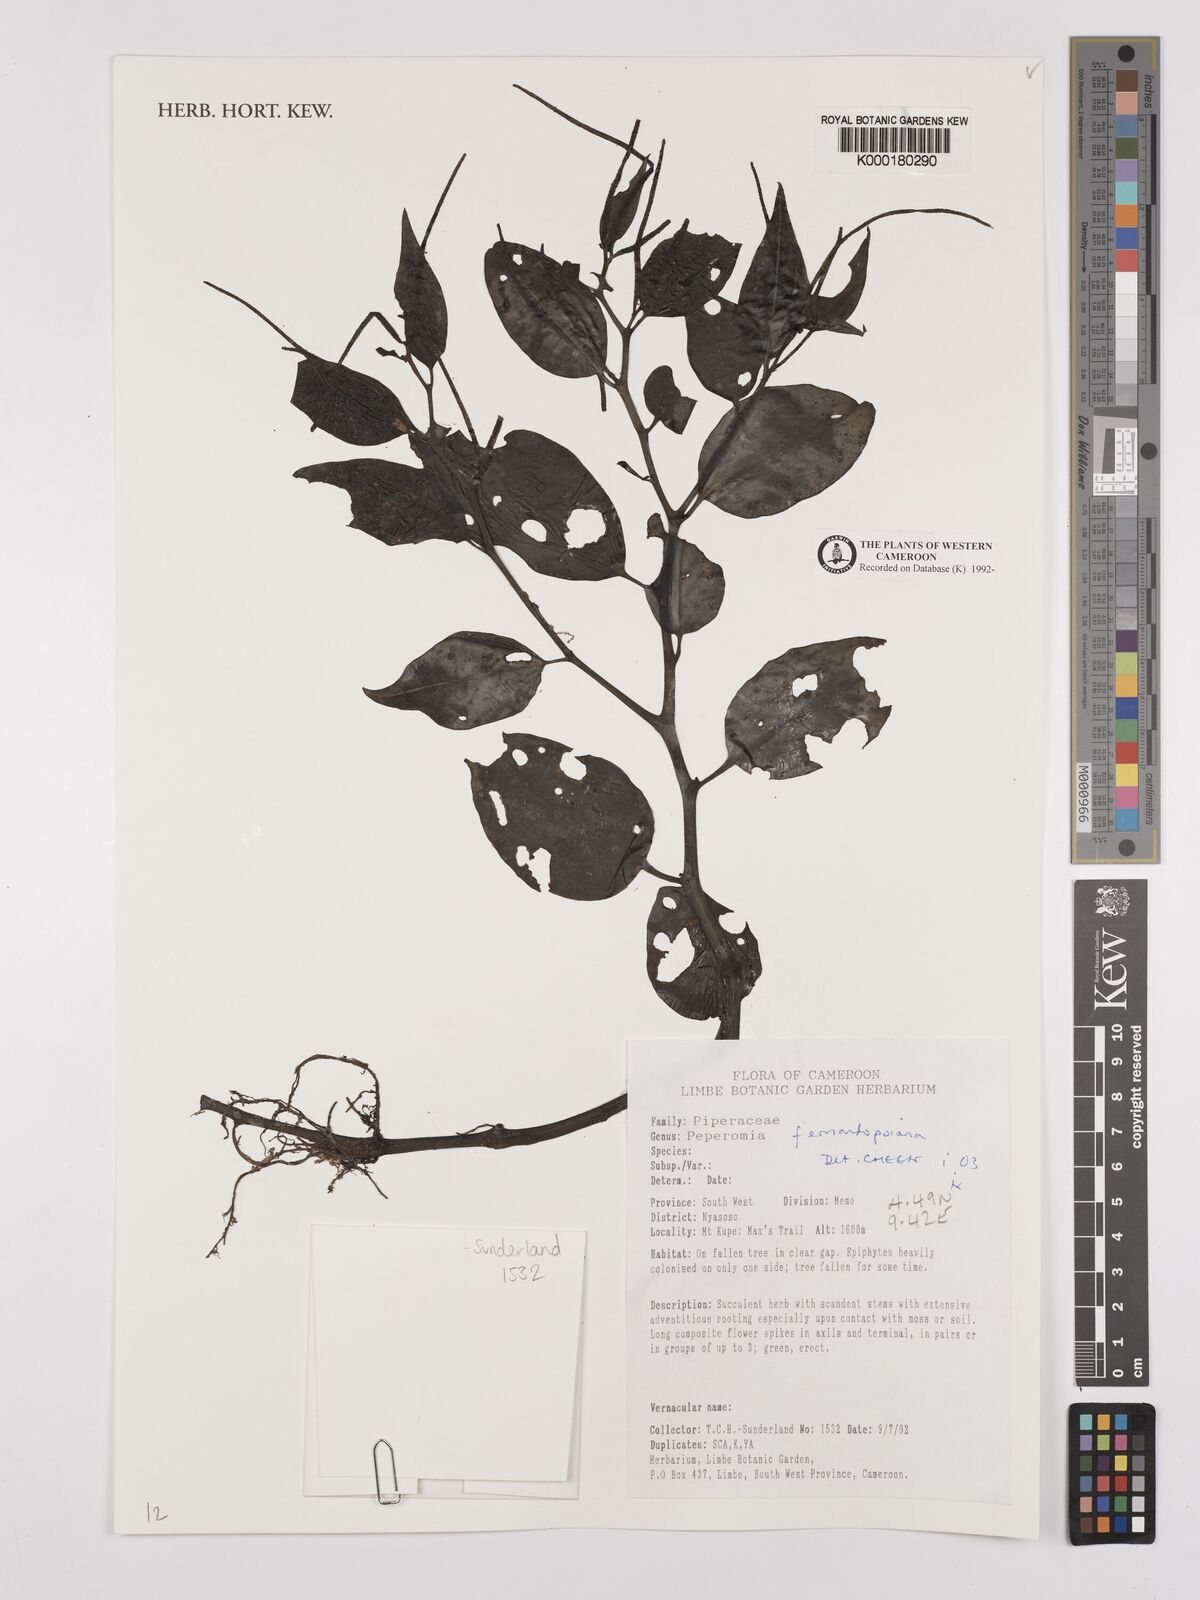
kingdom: Plantae
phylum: Tracheophyta
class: Magnoliopsida
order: Piperales
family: Piperaceae
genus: Peperomia
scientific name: Peperomia fernandopoiana
